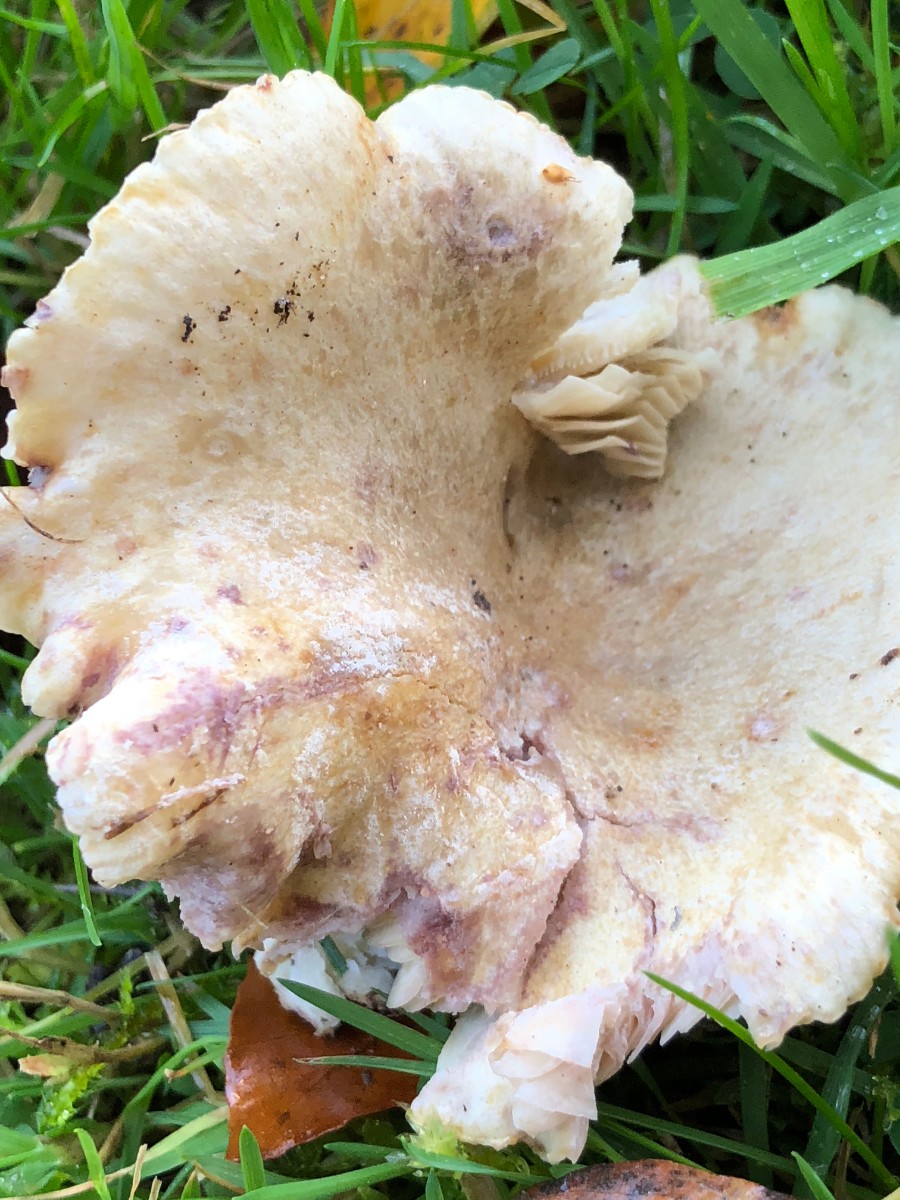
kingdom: Fungi
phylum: Basidiomycota
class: Agaricomycetes
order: Russulales
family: Russulaceae
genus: Lactarius
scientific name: Lactarius uvidus
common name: violetkødet mælkehat
